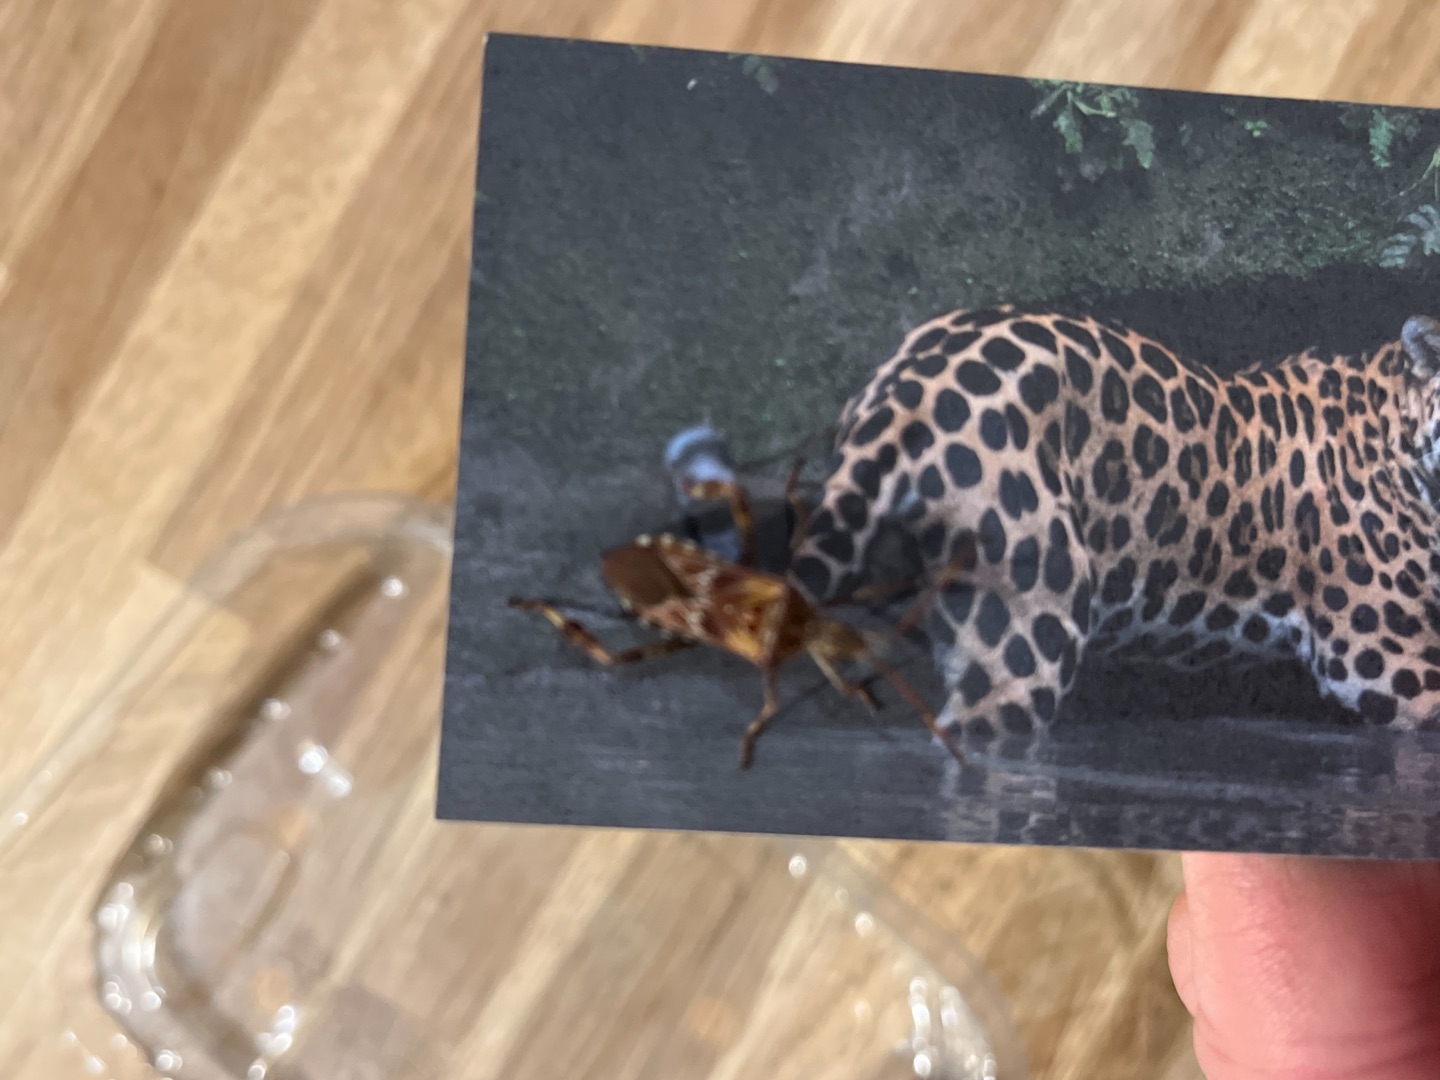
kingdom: Animalia
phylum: Arthropoda
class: Insecta
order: Hemiptera
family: Coreidae
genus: Leptoglossus
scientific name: Leptoglossus occidentalis
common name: Amerikansk fyrretæge
